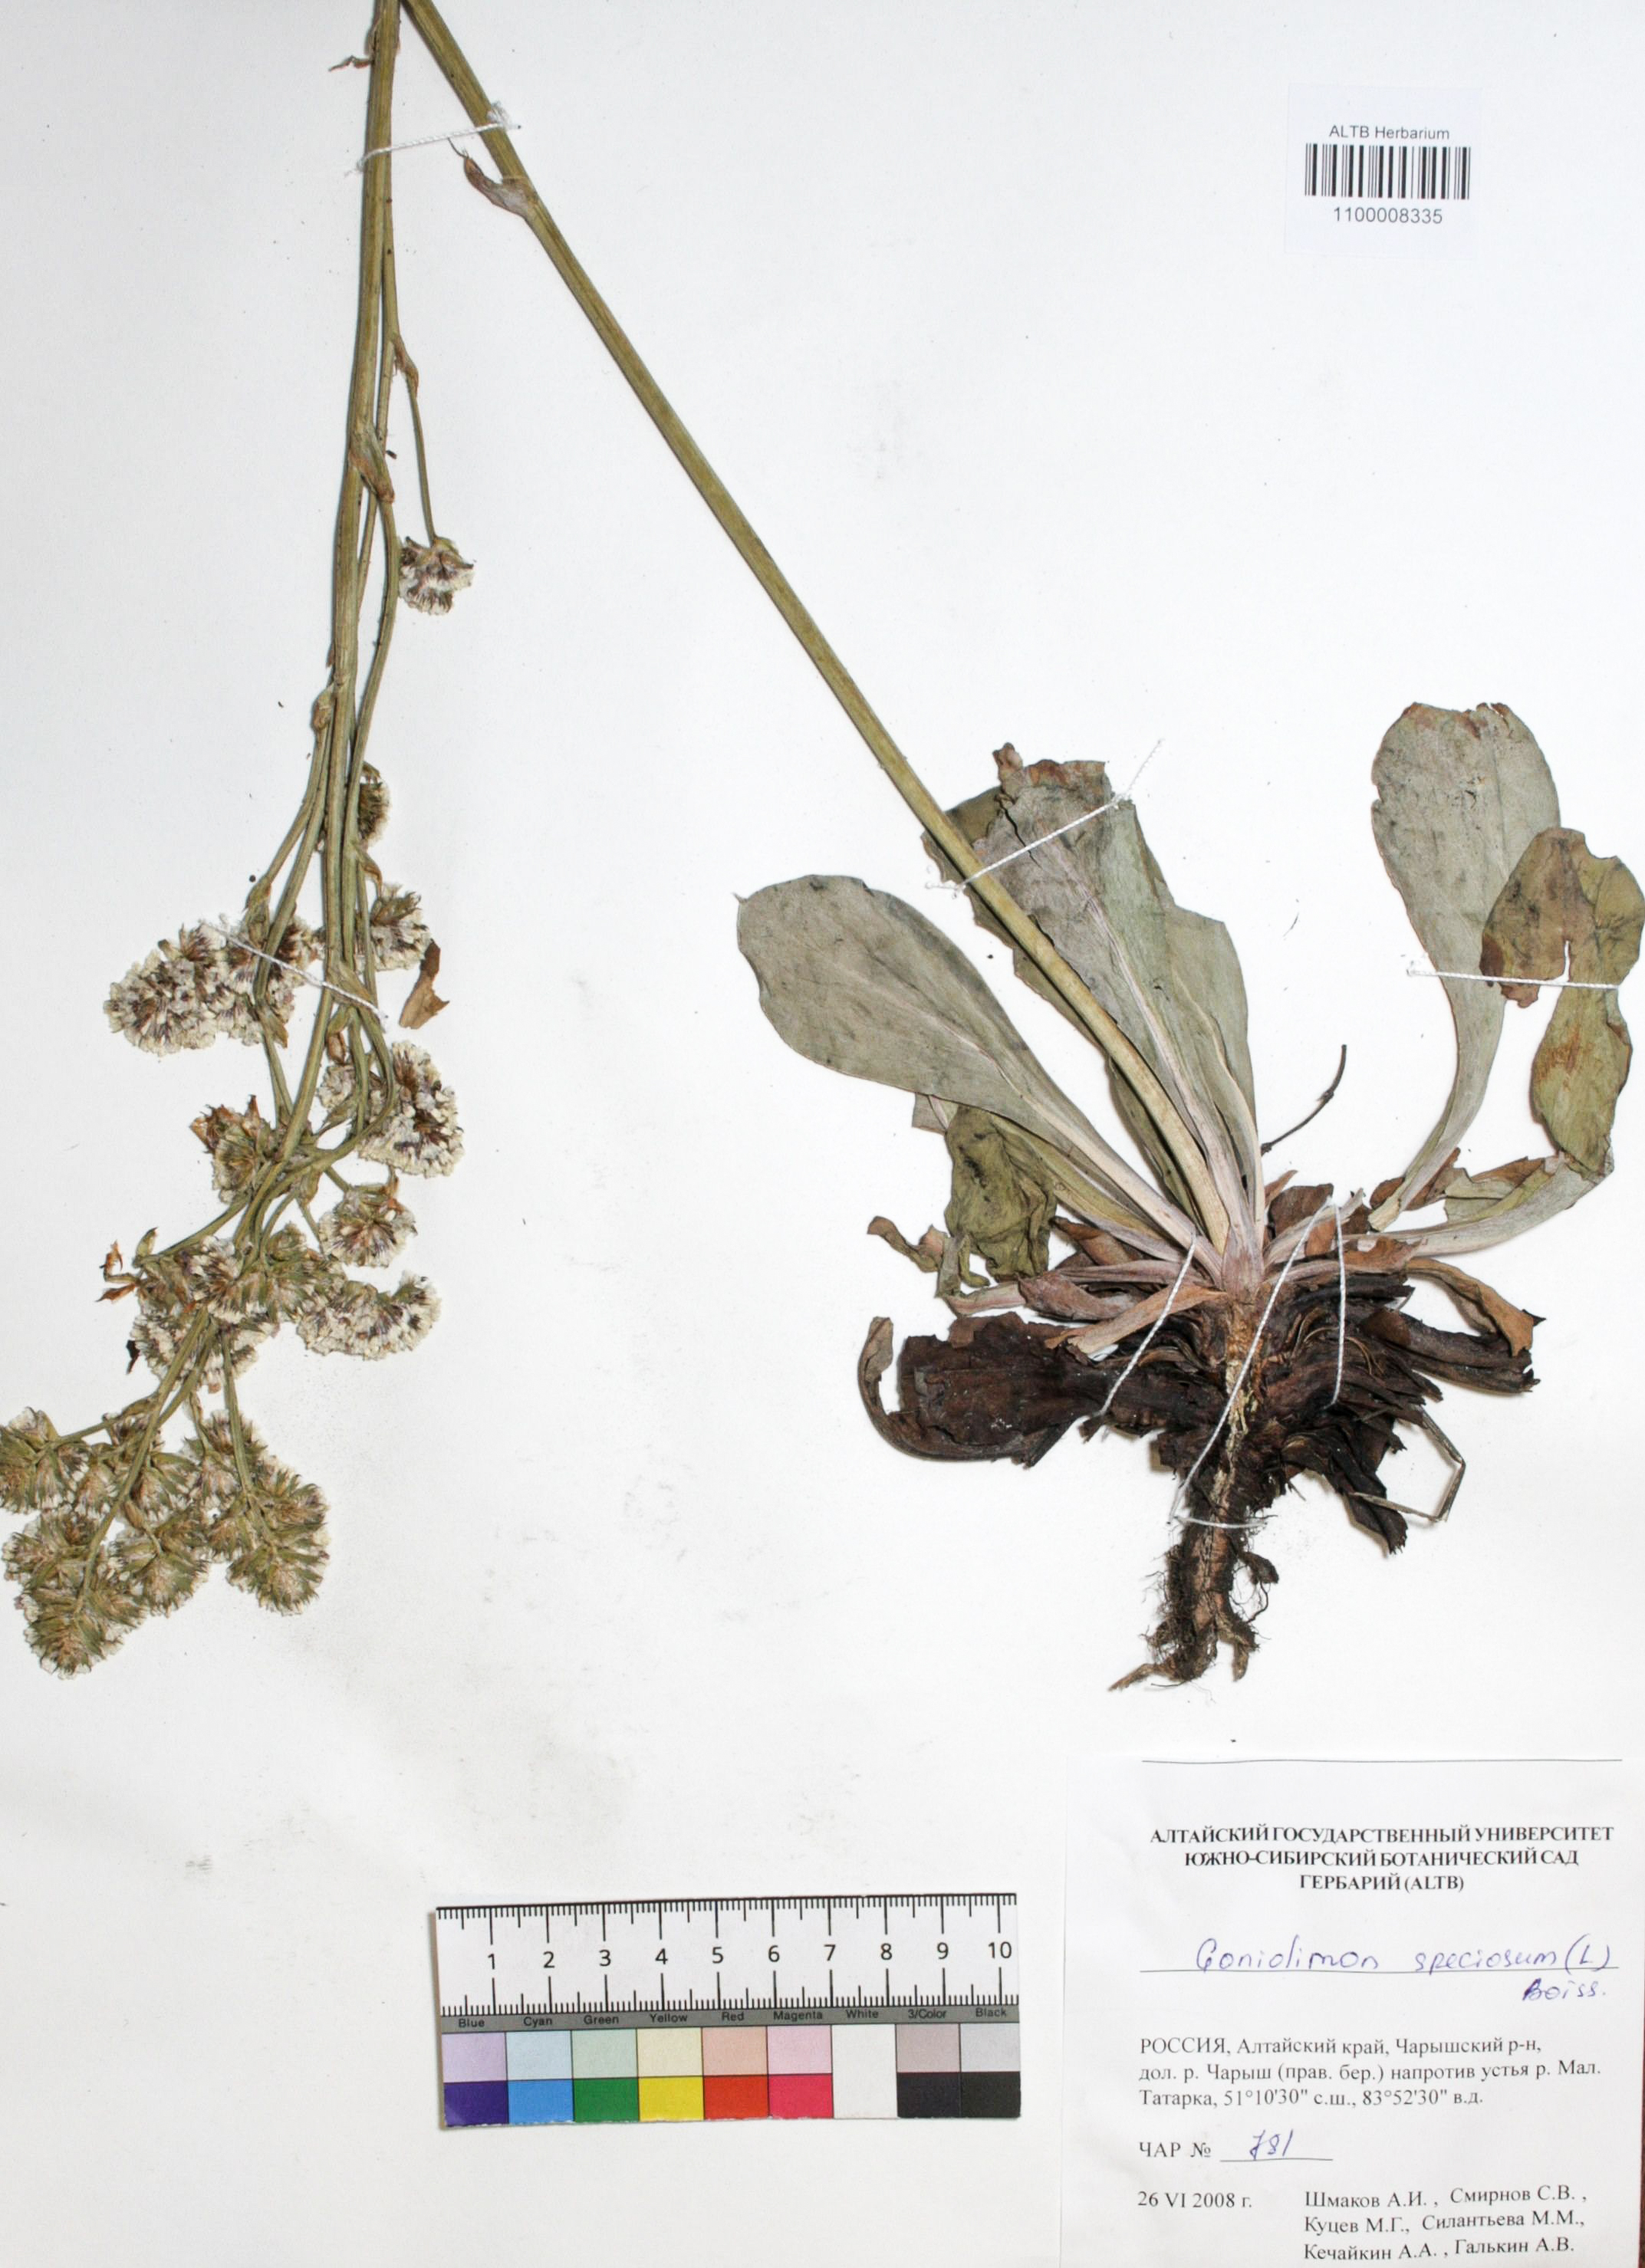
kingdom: Plantae
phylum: Tracheophyta
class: Magnoliopsida
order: Caryophyllales
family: Plumbaginaceae
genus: Goniolimon
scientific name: Goniolimon speciosum
